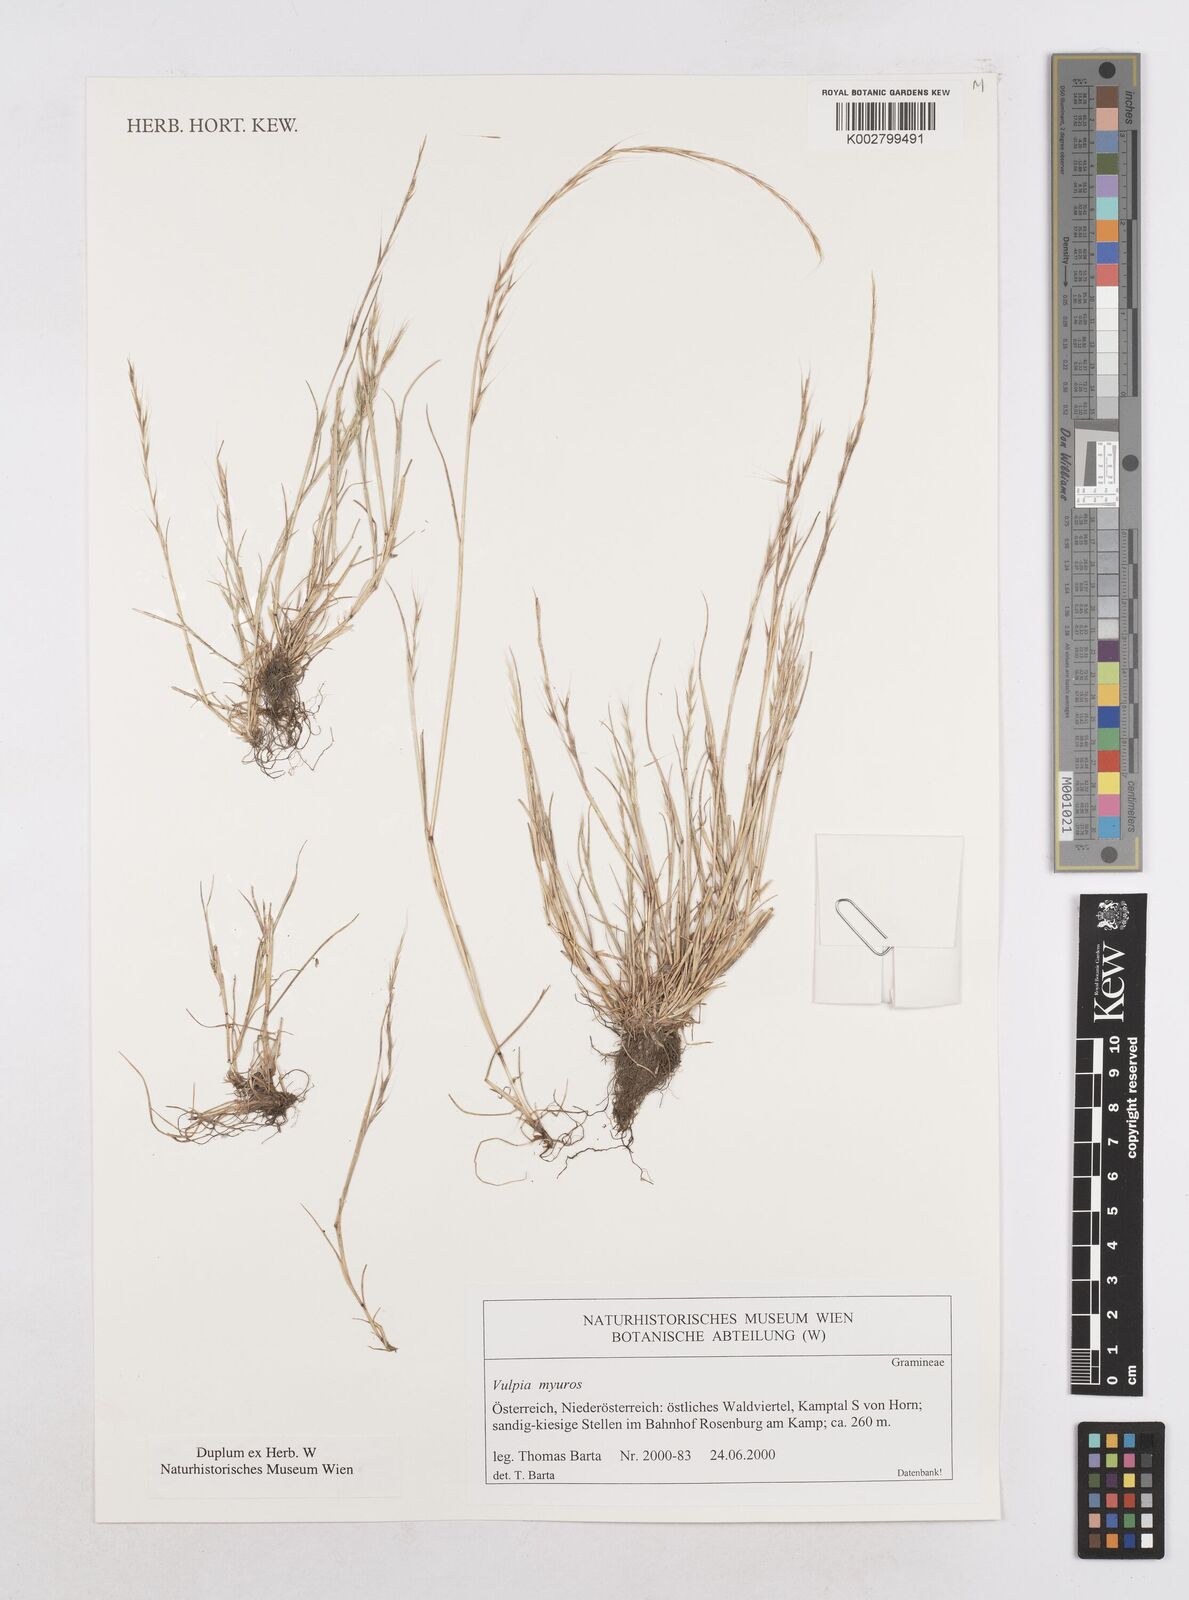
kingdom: Plantae
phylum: Tracheophyta
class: Liliopsida
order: Poales
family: Poaceae
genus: Festuca
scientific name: Festuca myuros
